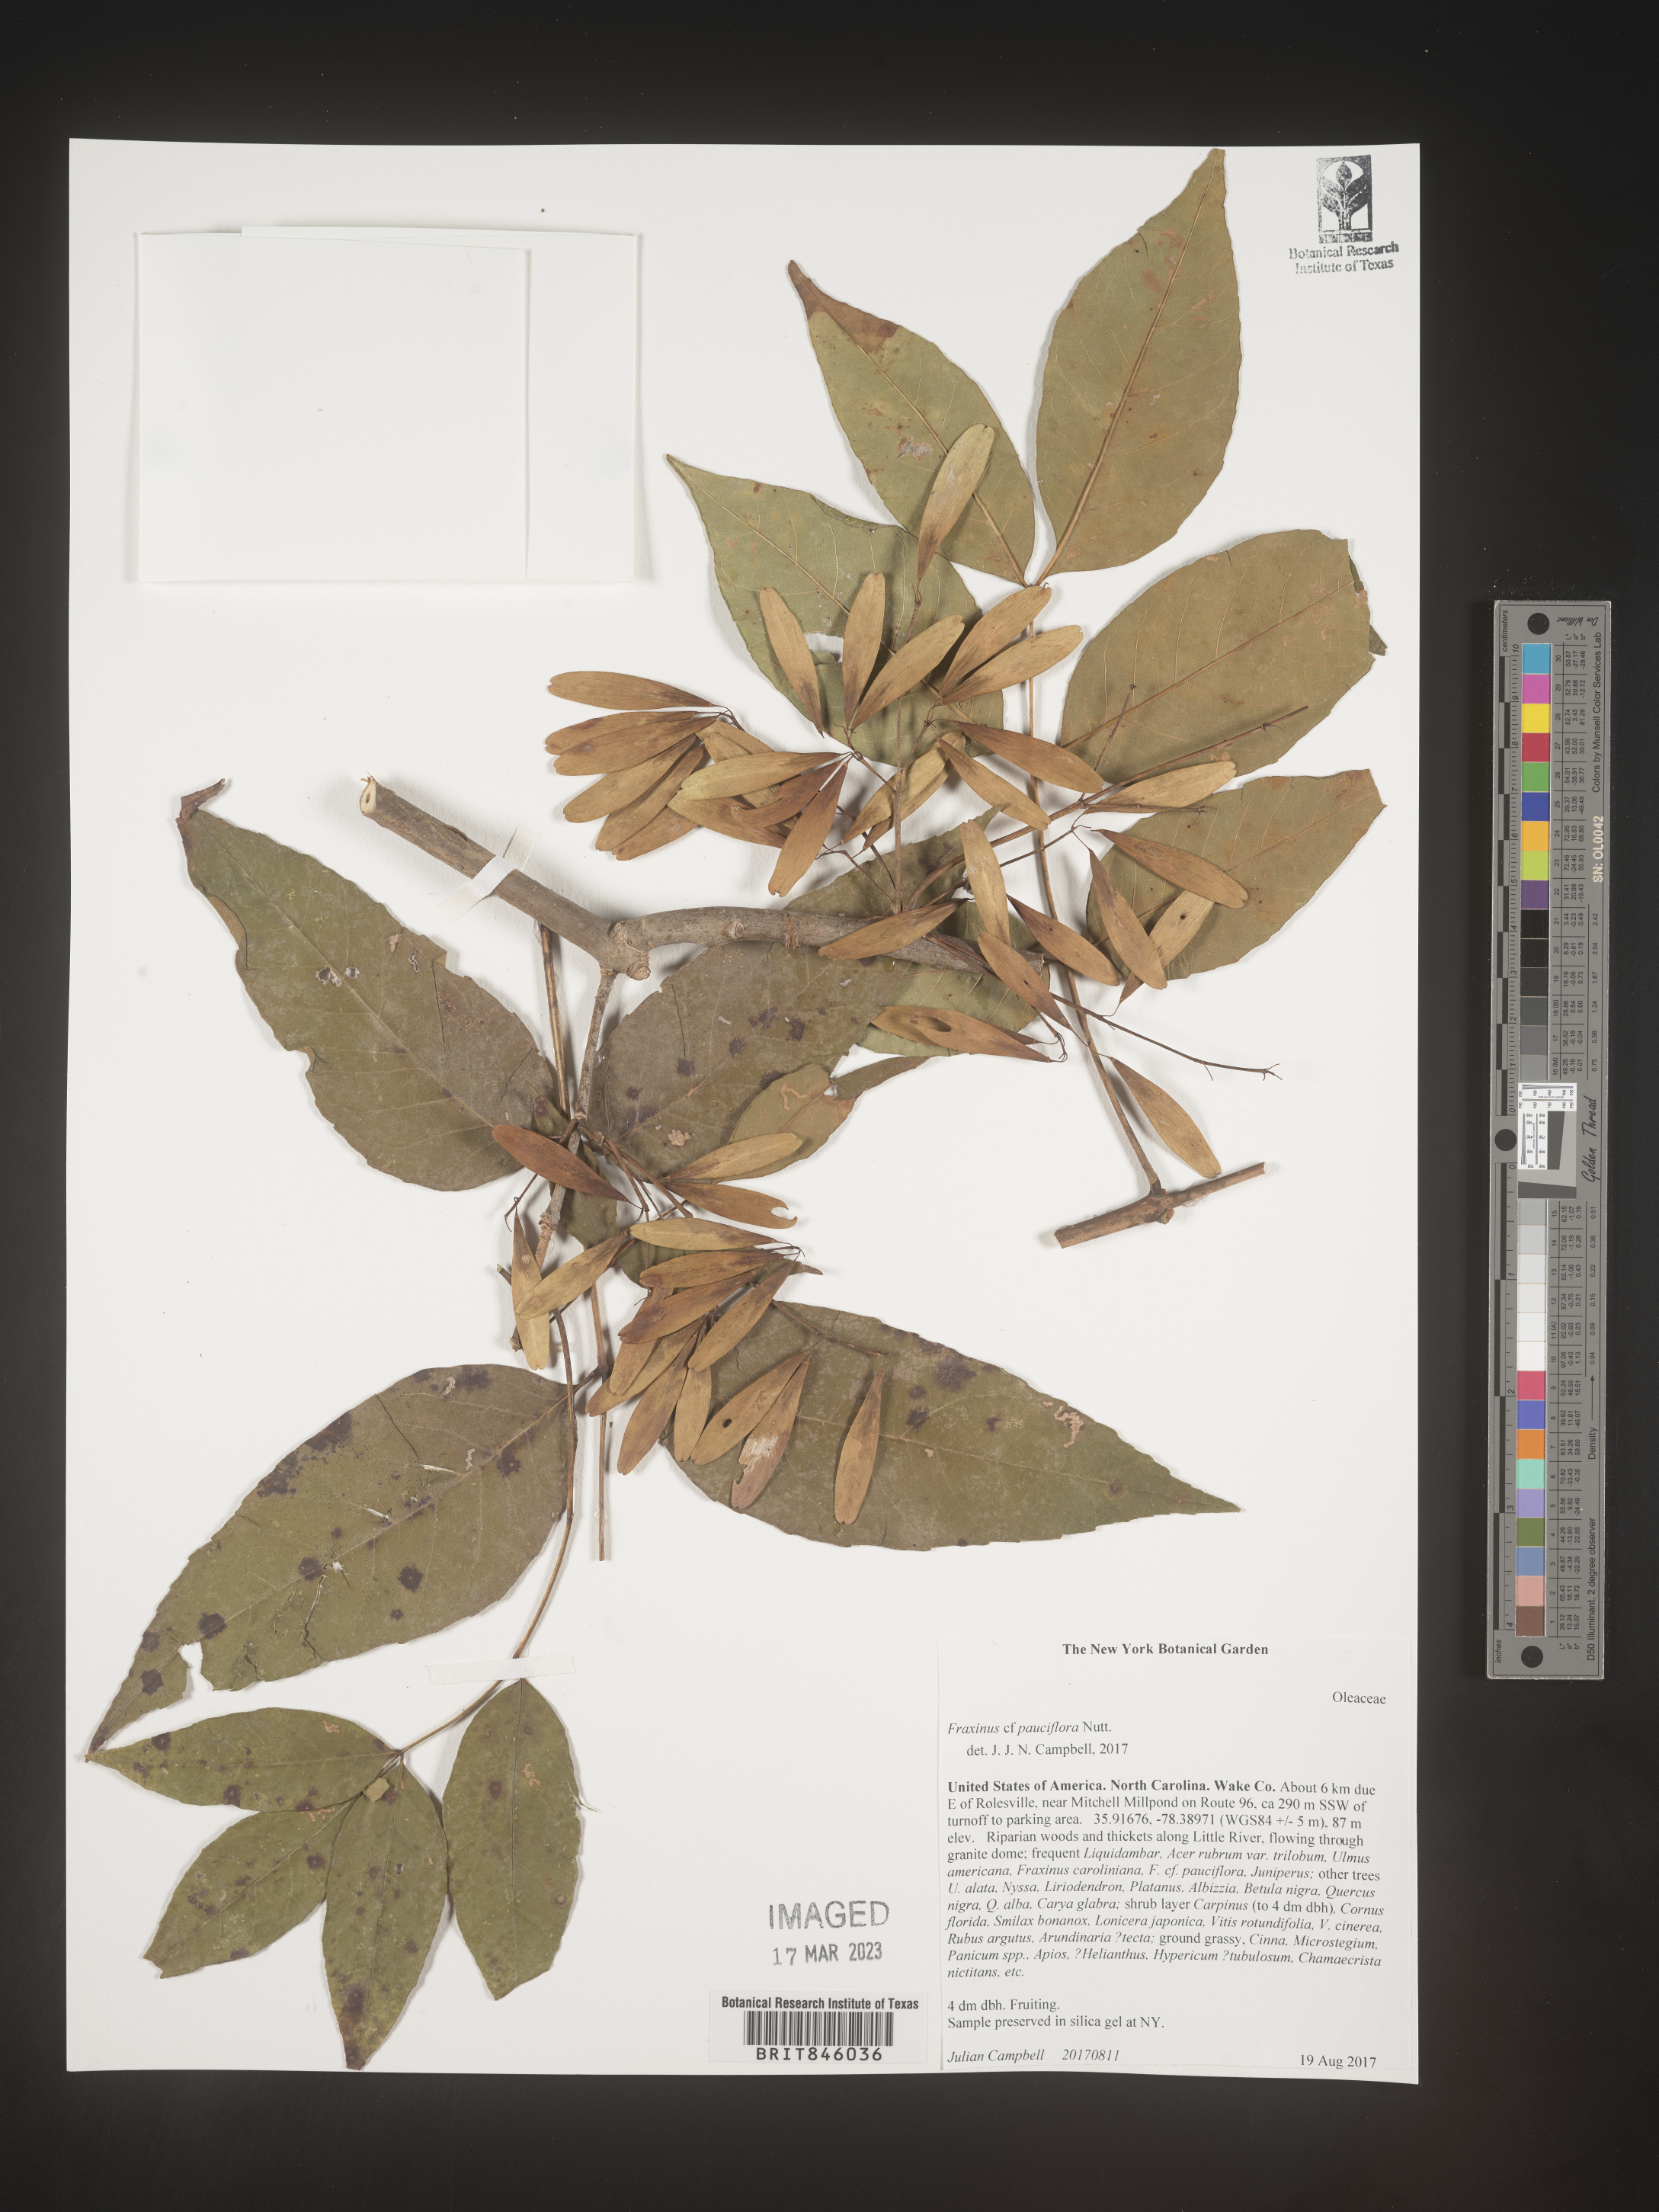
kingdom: Plantae
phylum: Tracheophyta
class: Magnoliopsida
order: Lamiales
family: Oleaceae
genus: Fraxinus
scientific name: Fraxinus caroliniana
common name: Carolina ash
